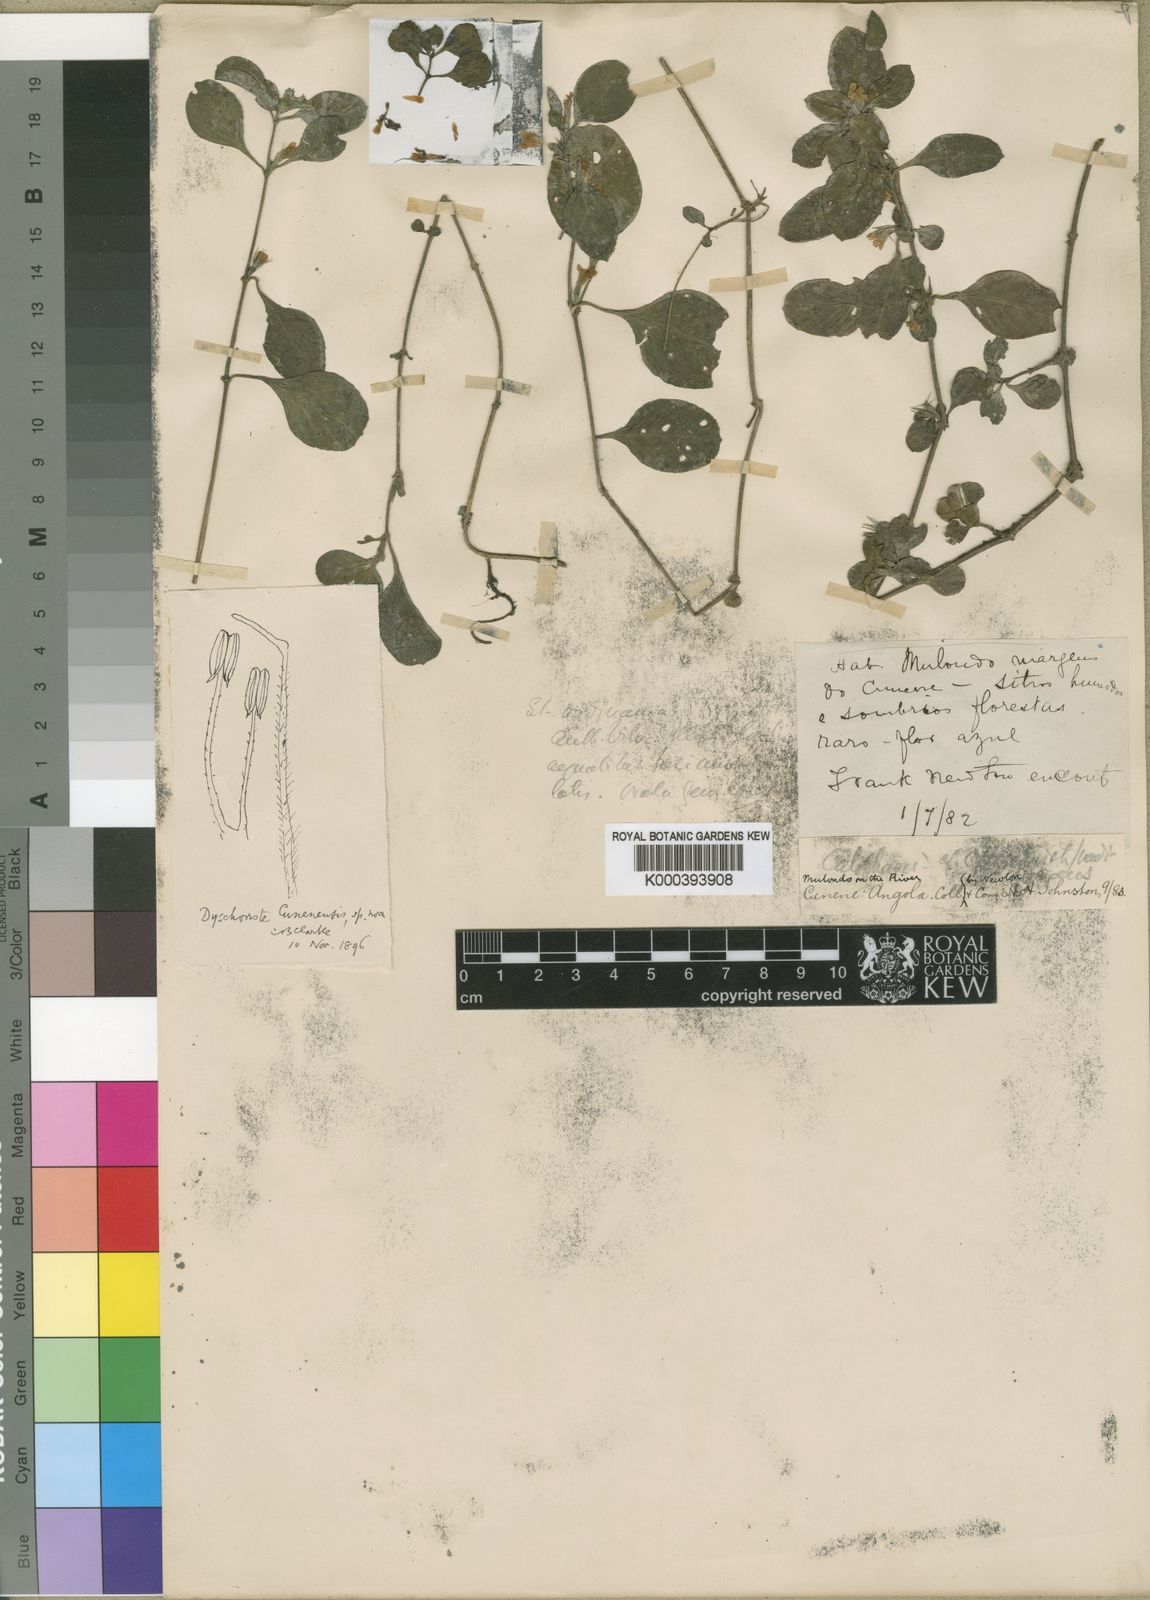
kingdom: Plantae
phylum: Tracheophyta
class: Magnoliopsida
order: Lamiales
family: Acanthaceae
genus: Dyschoriste
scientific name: Dyschoriste cunenensis
